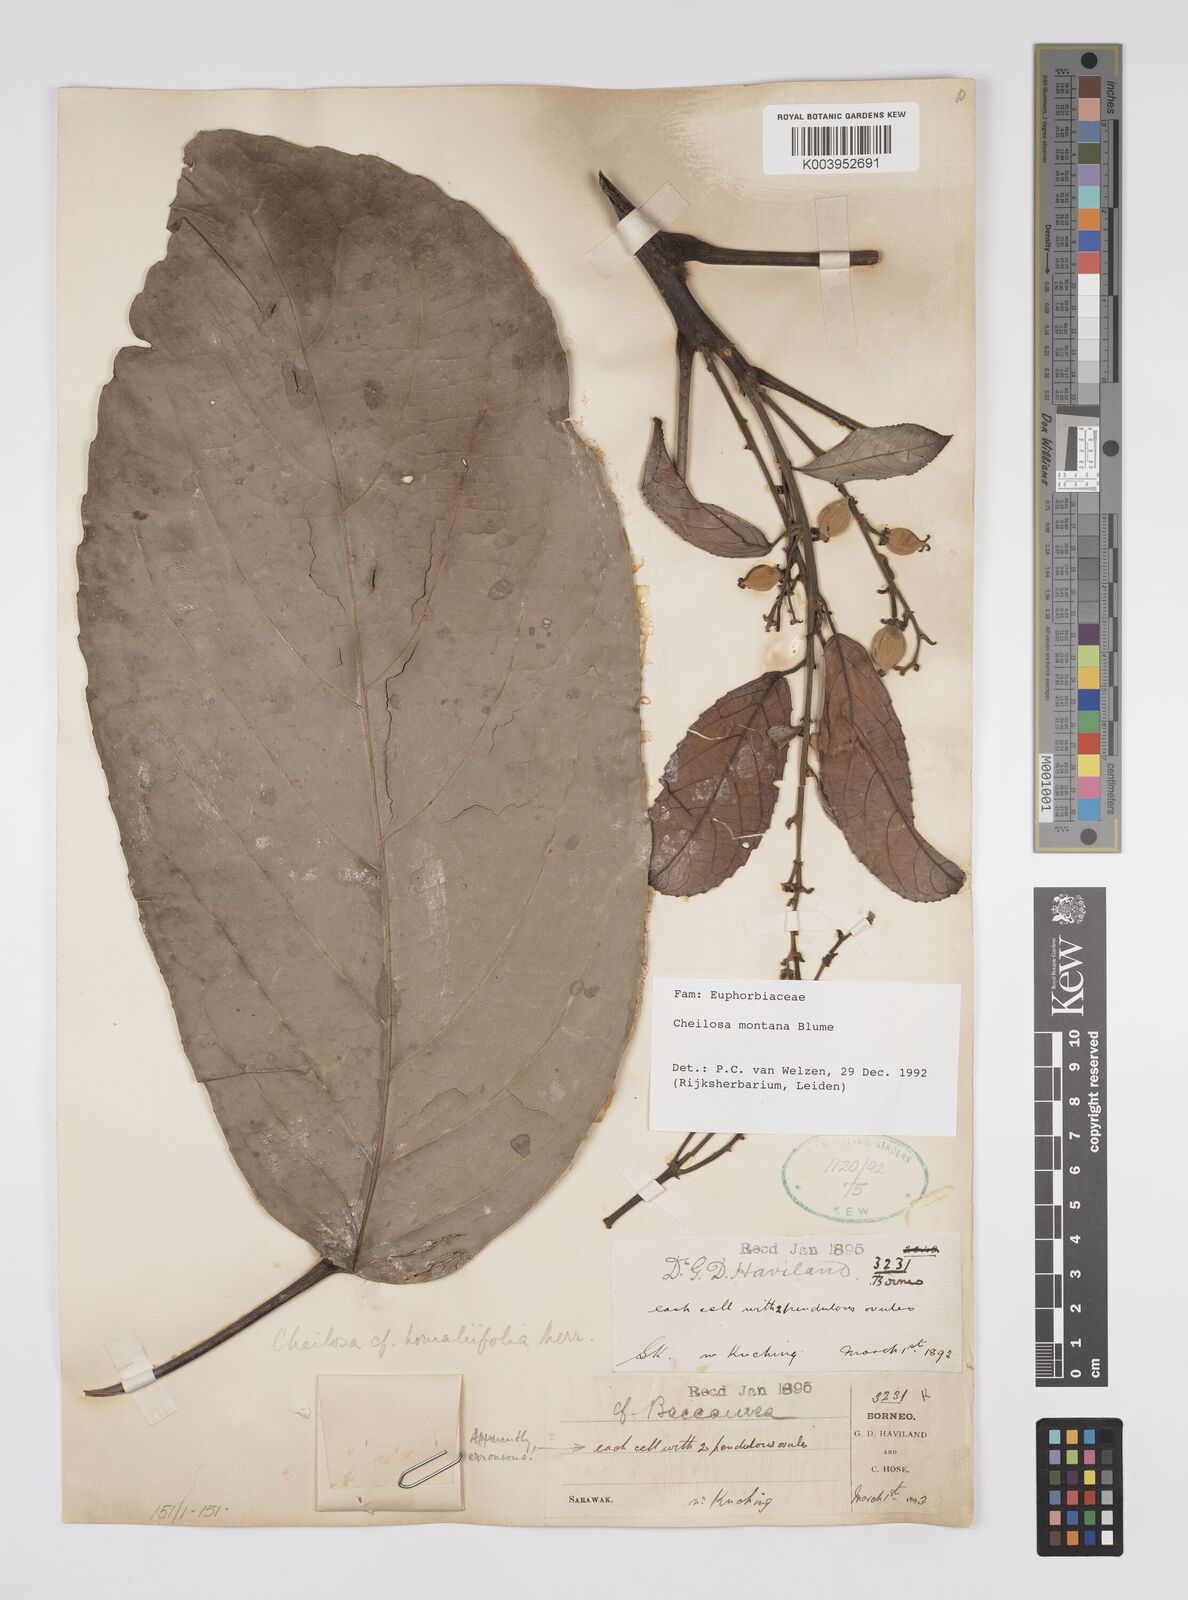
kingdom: Plantae
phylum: Tracheophyta
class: Magnoliopsida
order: Malpighiales
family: Euphorbiaceae
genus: Cheilosa
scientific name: Cheilosa montana
